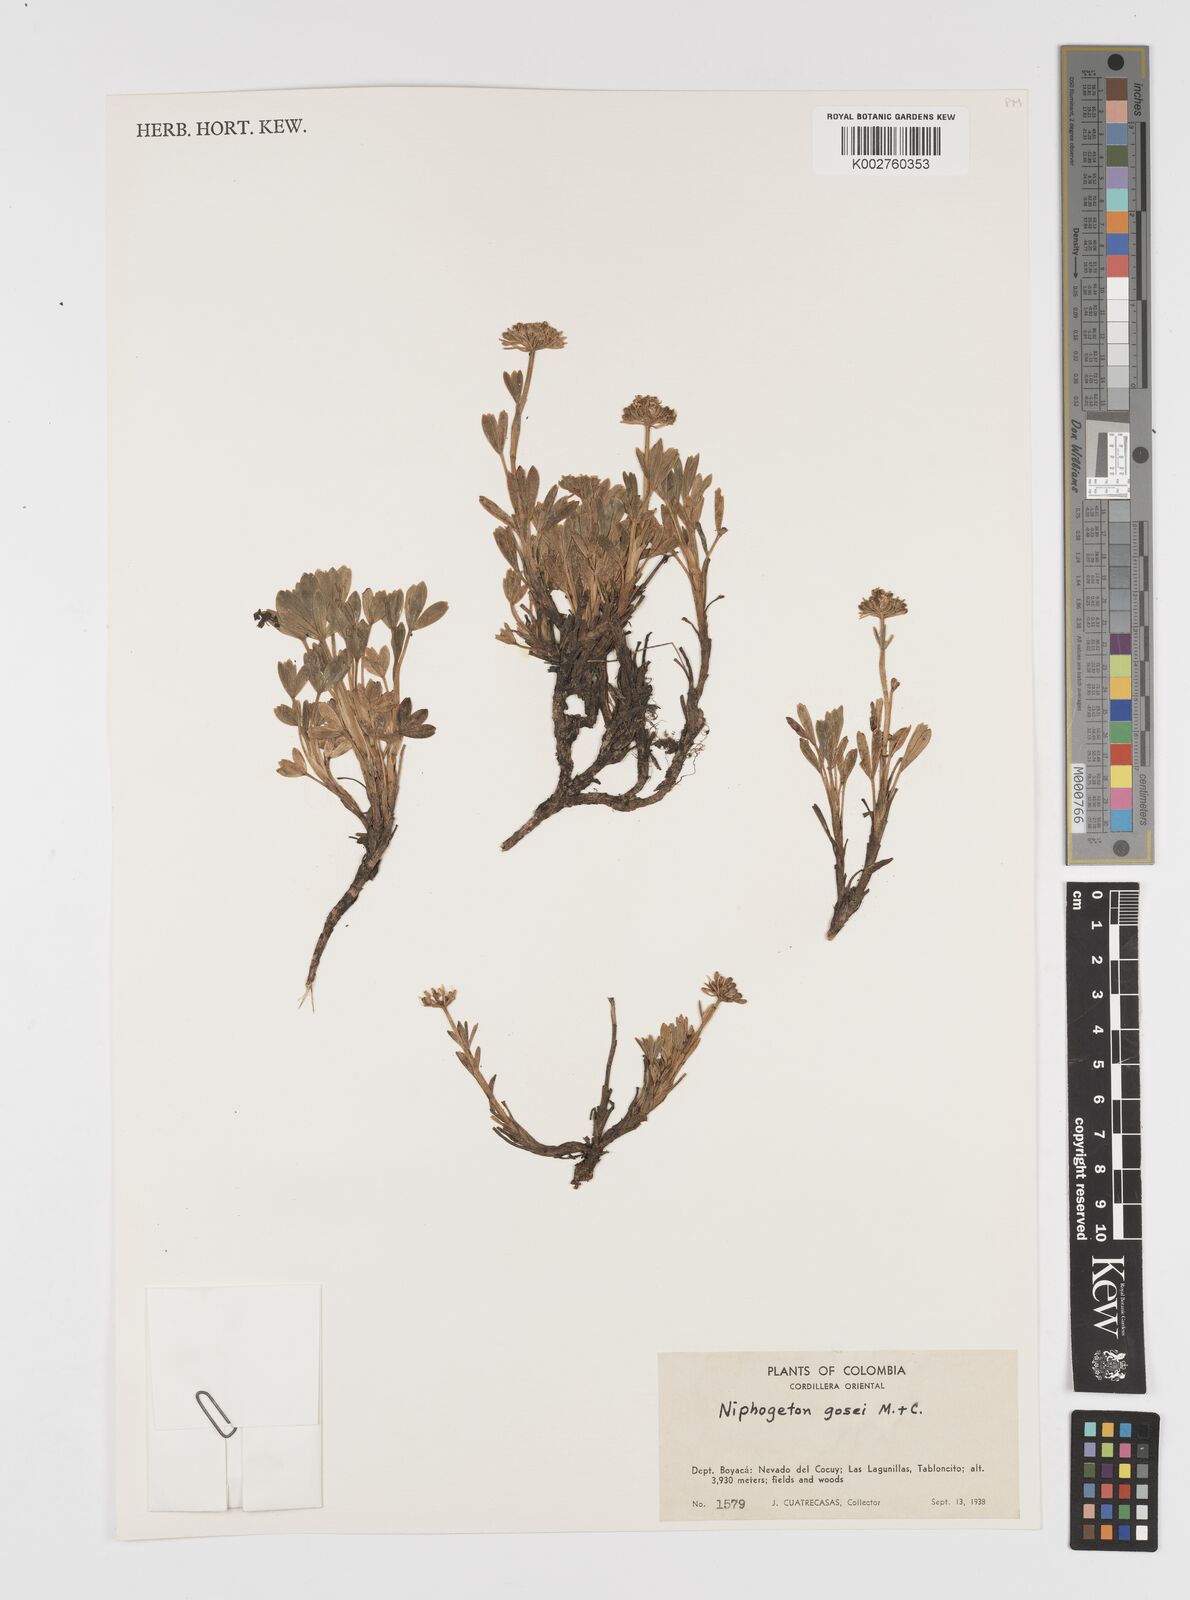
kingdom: Plantae
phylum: Tracheophyta
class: Magnoliopsida
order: Apiales
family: Apiaceae
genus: Niphogeton
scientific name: Niphogeton josei
